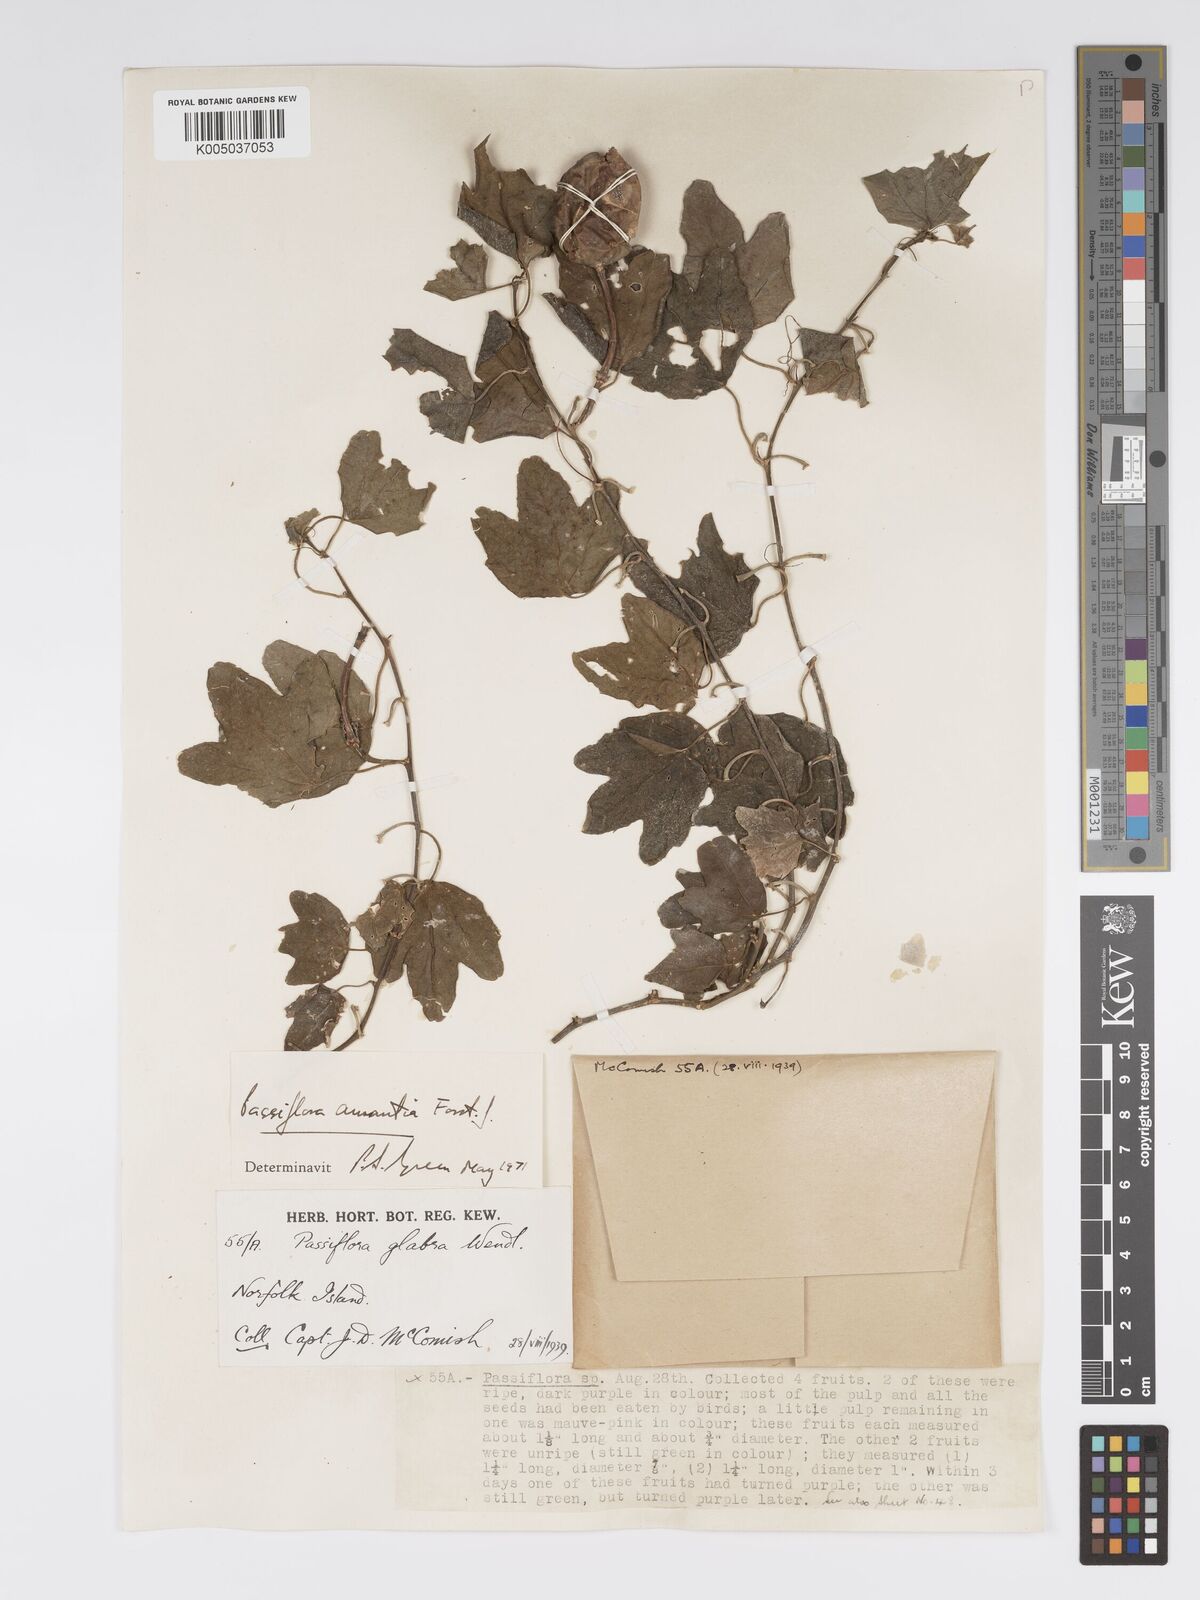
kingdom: Plantae
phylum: Tracheophyta
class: Magnoliopsida
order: Malpighiales
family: Passifloraceae
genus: Passiflora
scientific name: Passiflora aurantia
